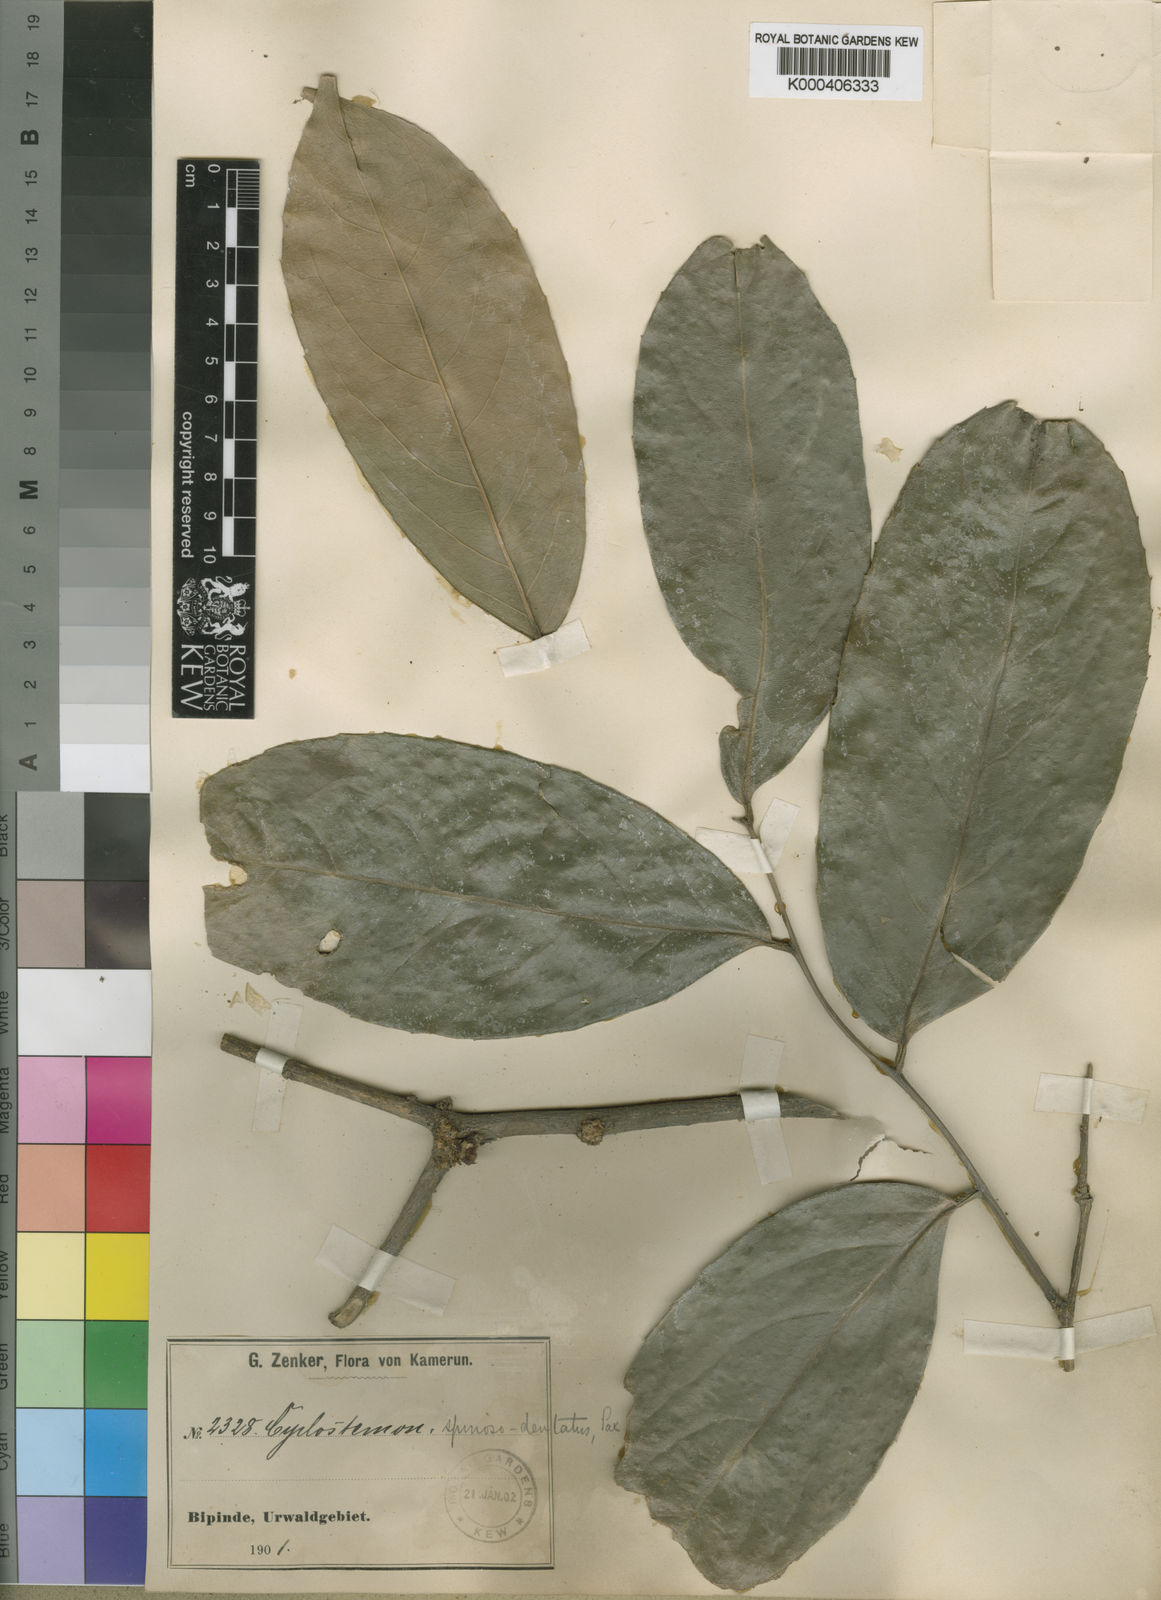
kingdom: Plantae
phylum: Tracheophyta
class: Magnoliopsida
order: Malpighiales
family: Putranjivaceae
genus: Drypetes
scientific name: Drypetes spinosodentata
